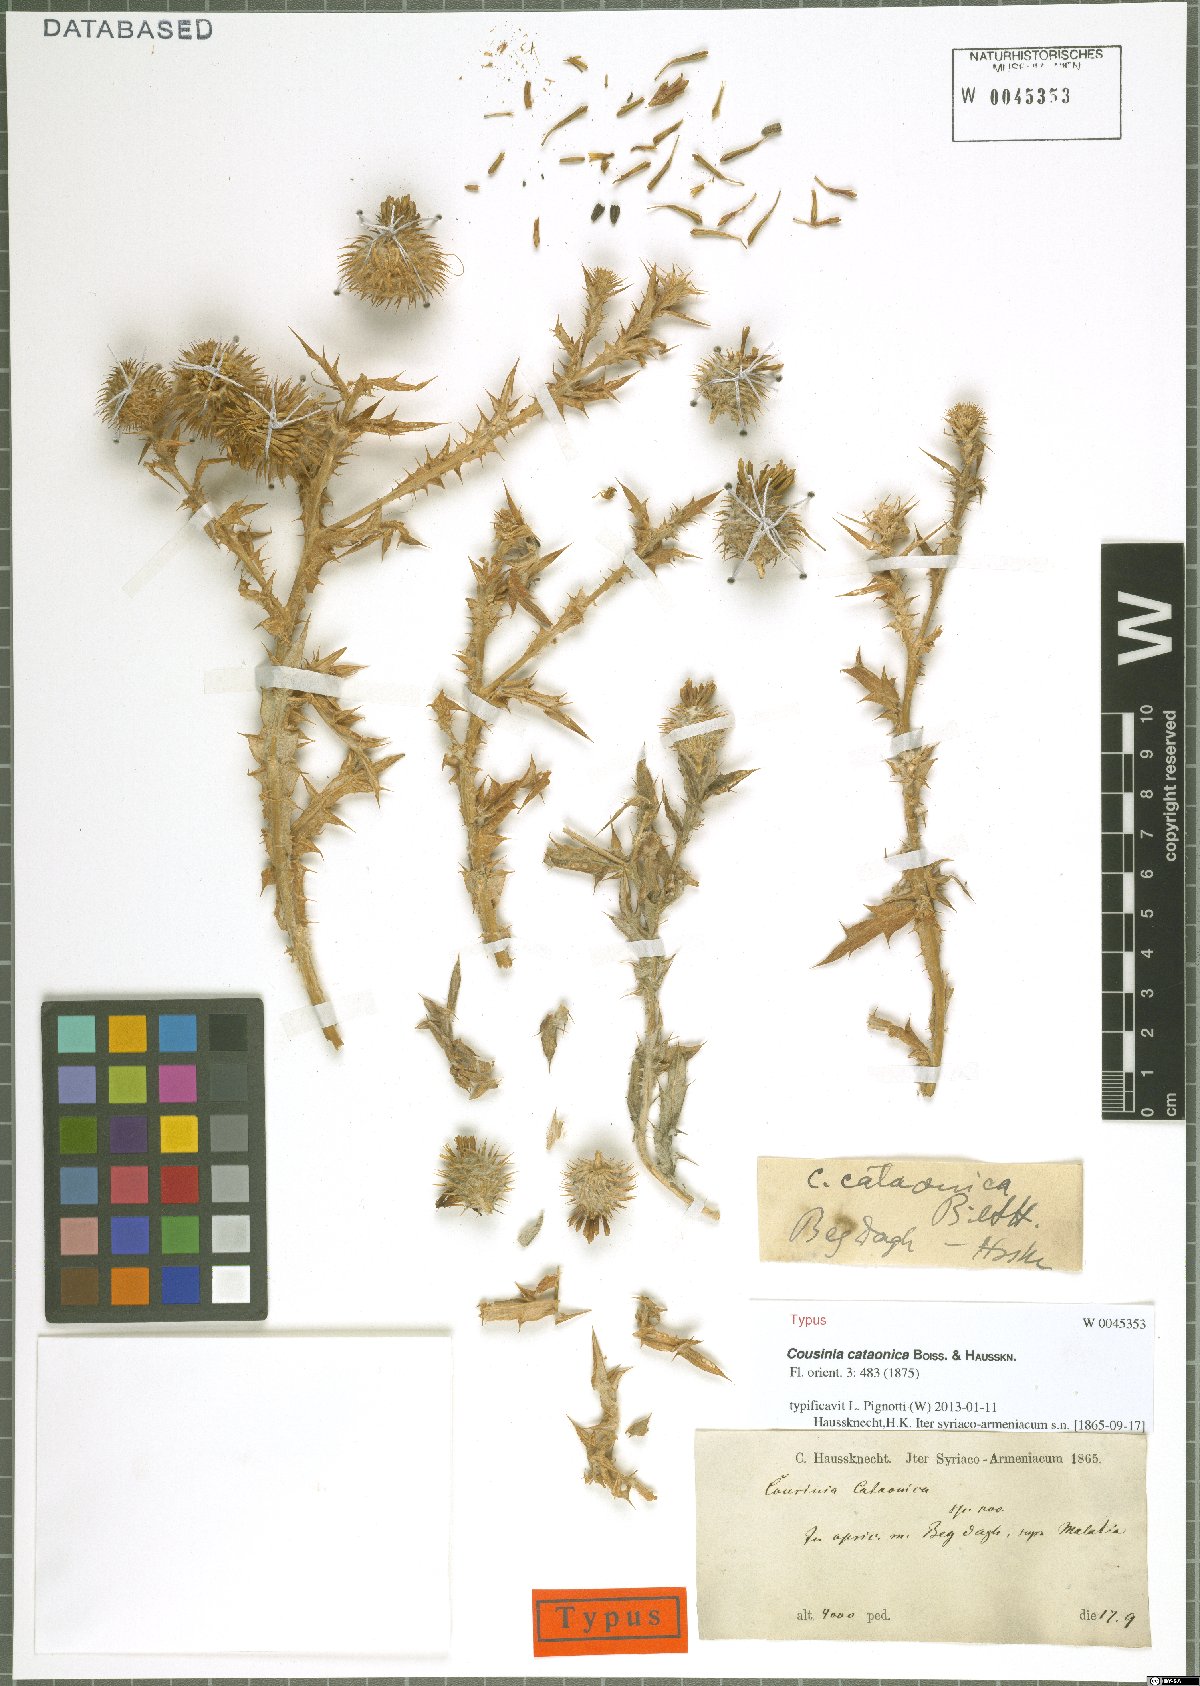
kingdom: Plantae
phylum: Tracheophyta
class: Magnoliopsida
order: Asterales
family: Asteraceae
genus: Cousinia
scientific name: Cousinia cataonica
